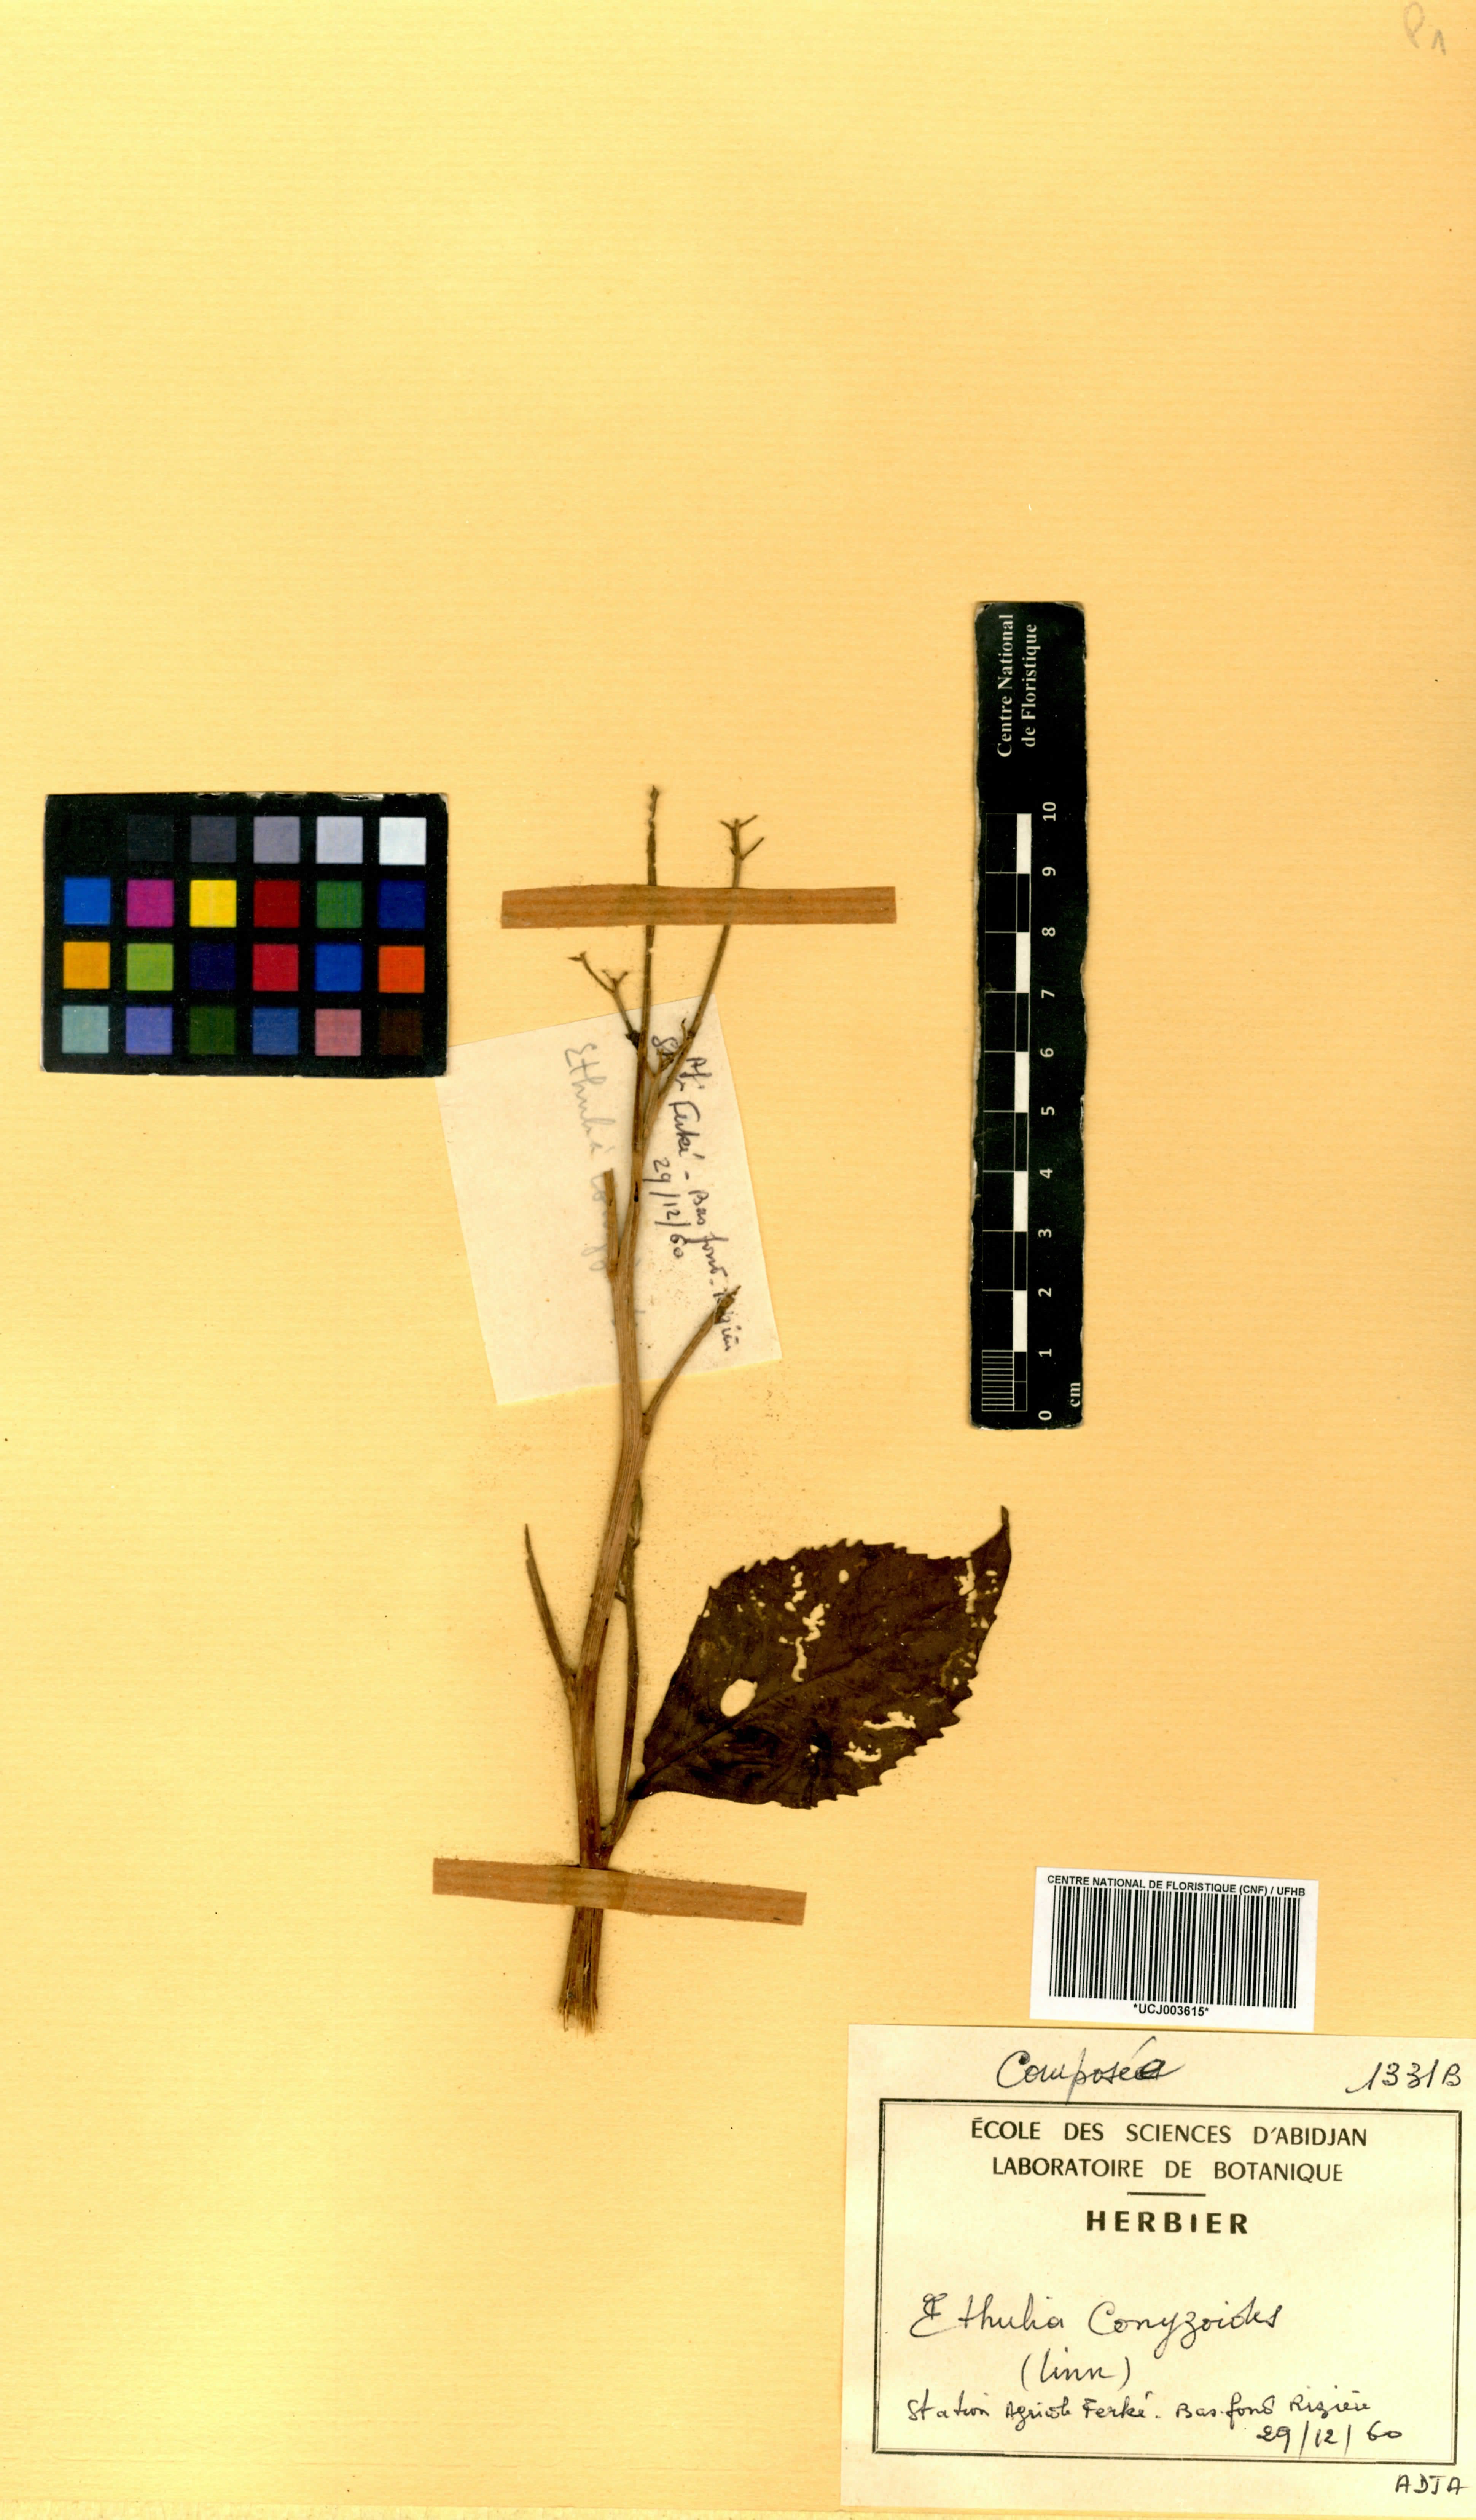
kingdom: Plantae
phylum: Tracheophyta
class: Magnoliopsida
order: Asterales
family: Asteraceae
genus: Ethulia
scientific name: Ethulia conyzoides
